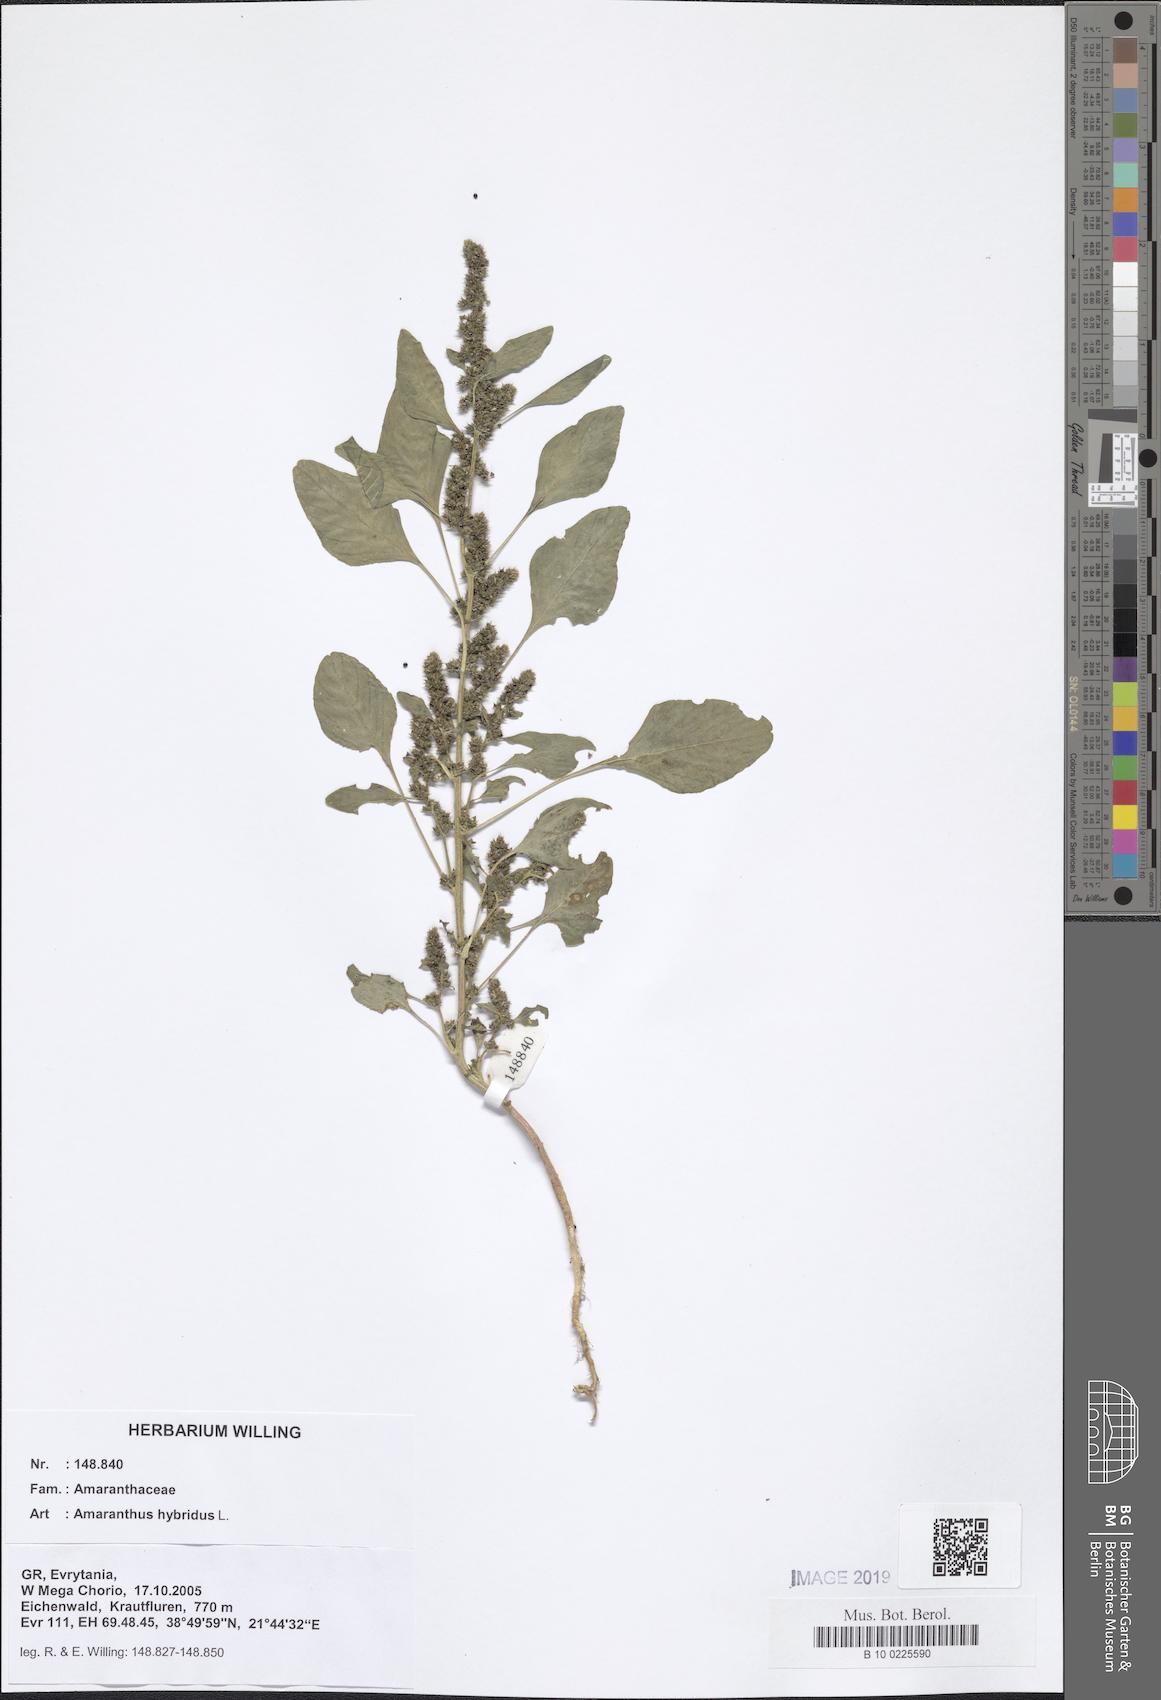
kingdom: Plantae
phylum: Tracheophyta
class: Magnoliopsida
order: Caryophyllales
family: Amaranthaceae
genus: Amaranthus
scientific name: Amaranthus hybridus
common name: Green amaranth
